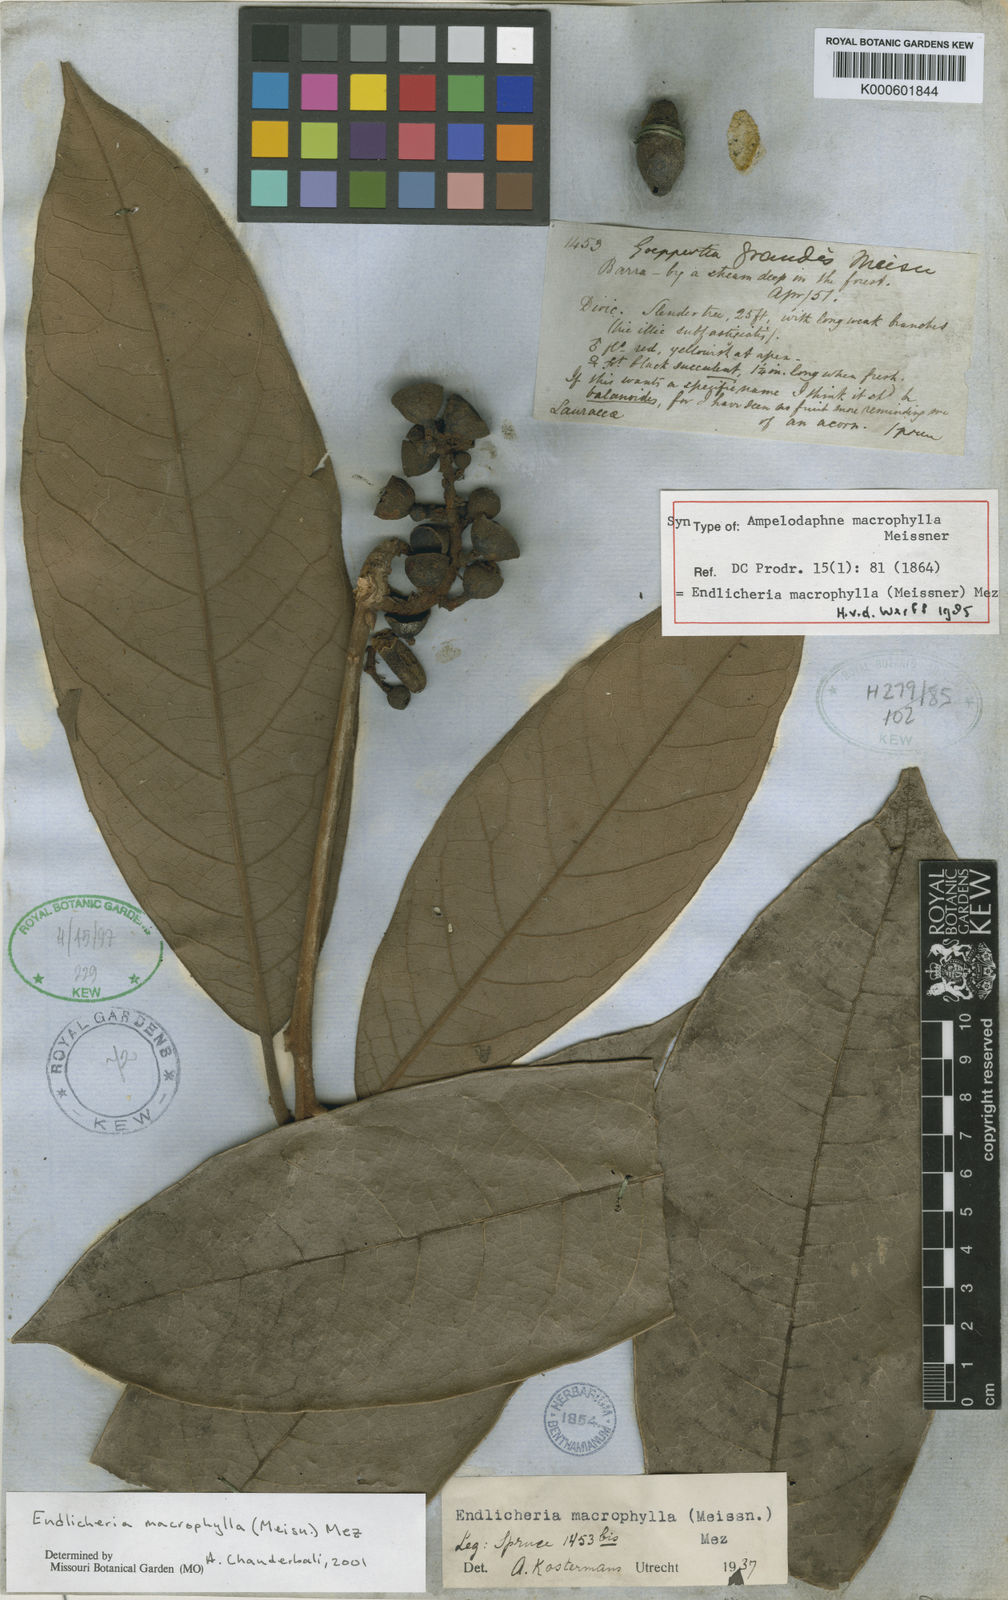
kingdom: Plantae
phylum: Tracheophyta
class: Magnoliopsida
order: Laurales
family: Lauraceae
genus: Endlicheria
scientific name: Endlicheria macrophylla
